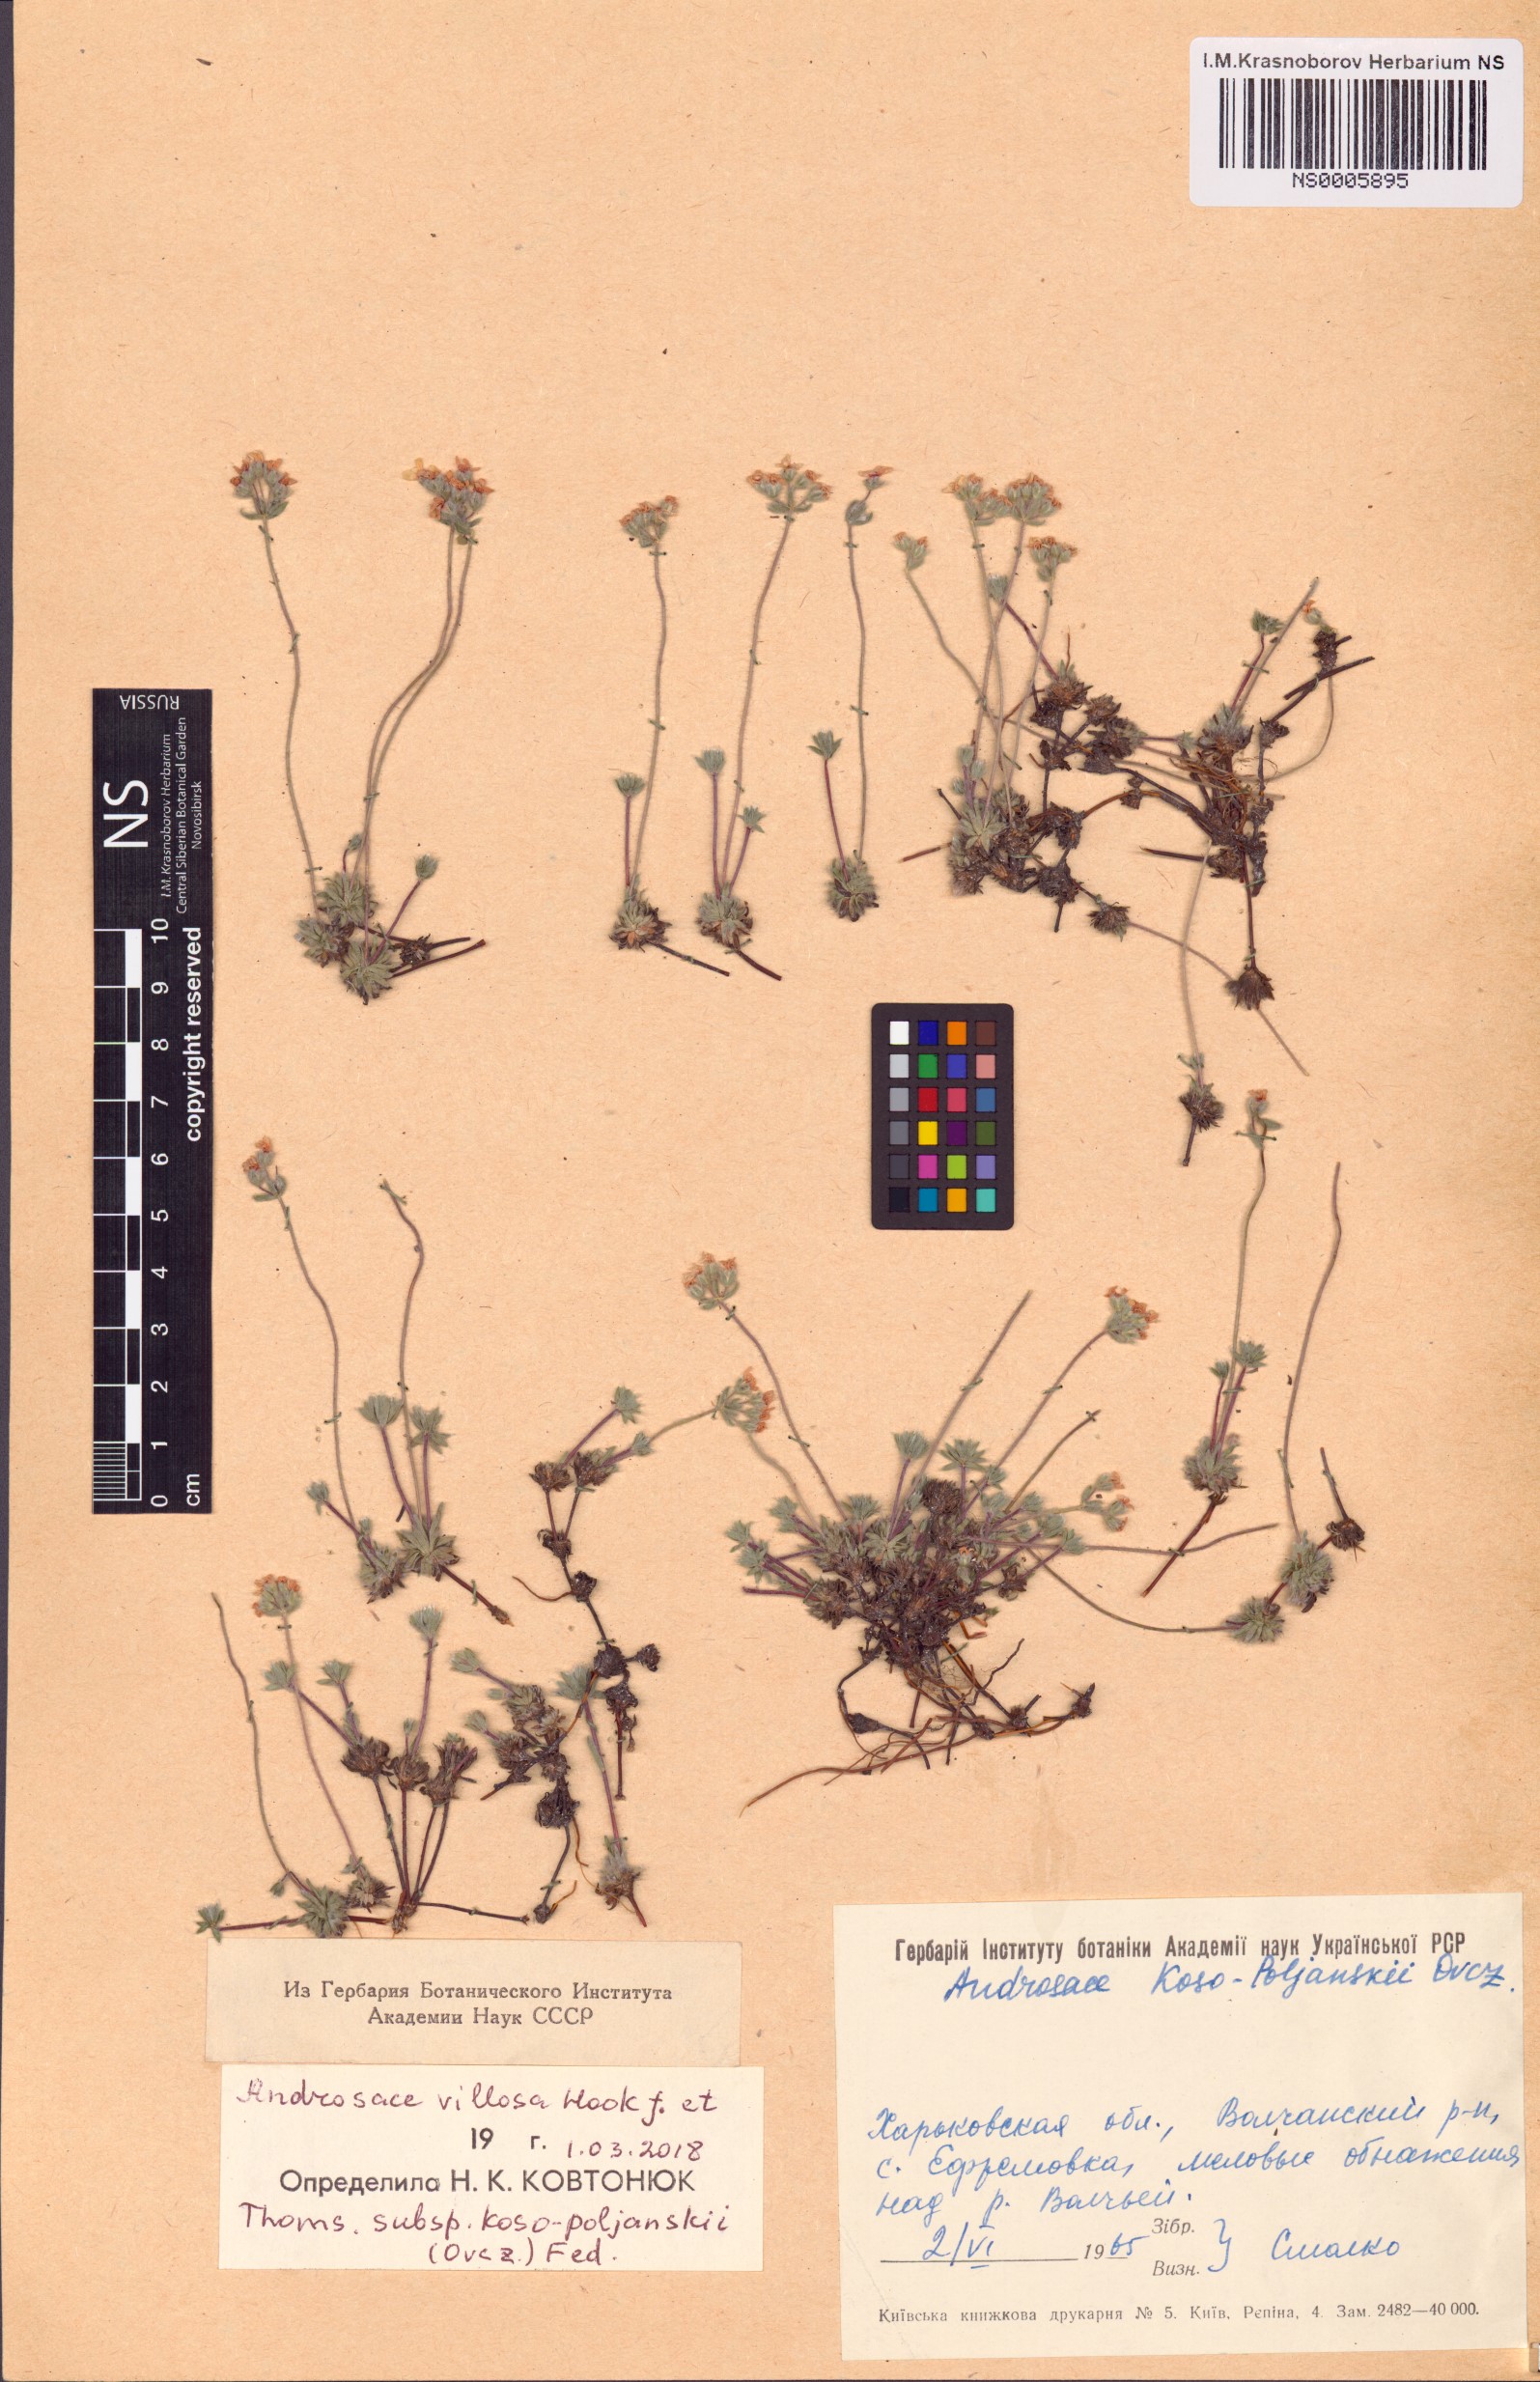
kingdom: Plantae
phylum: Tracheophyta
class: Magnoliopsida
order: Ericales
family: Primulaceae
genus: Androsace
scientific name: Androsace villosa
